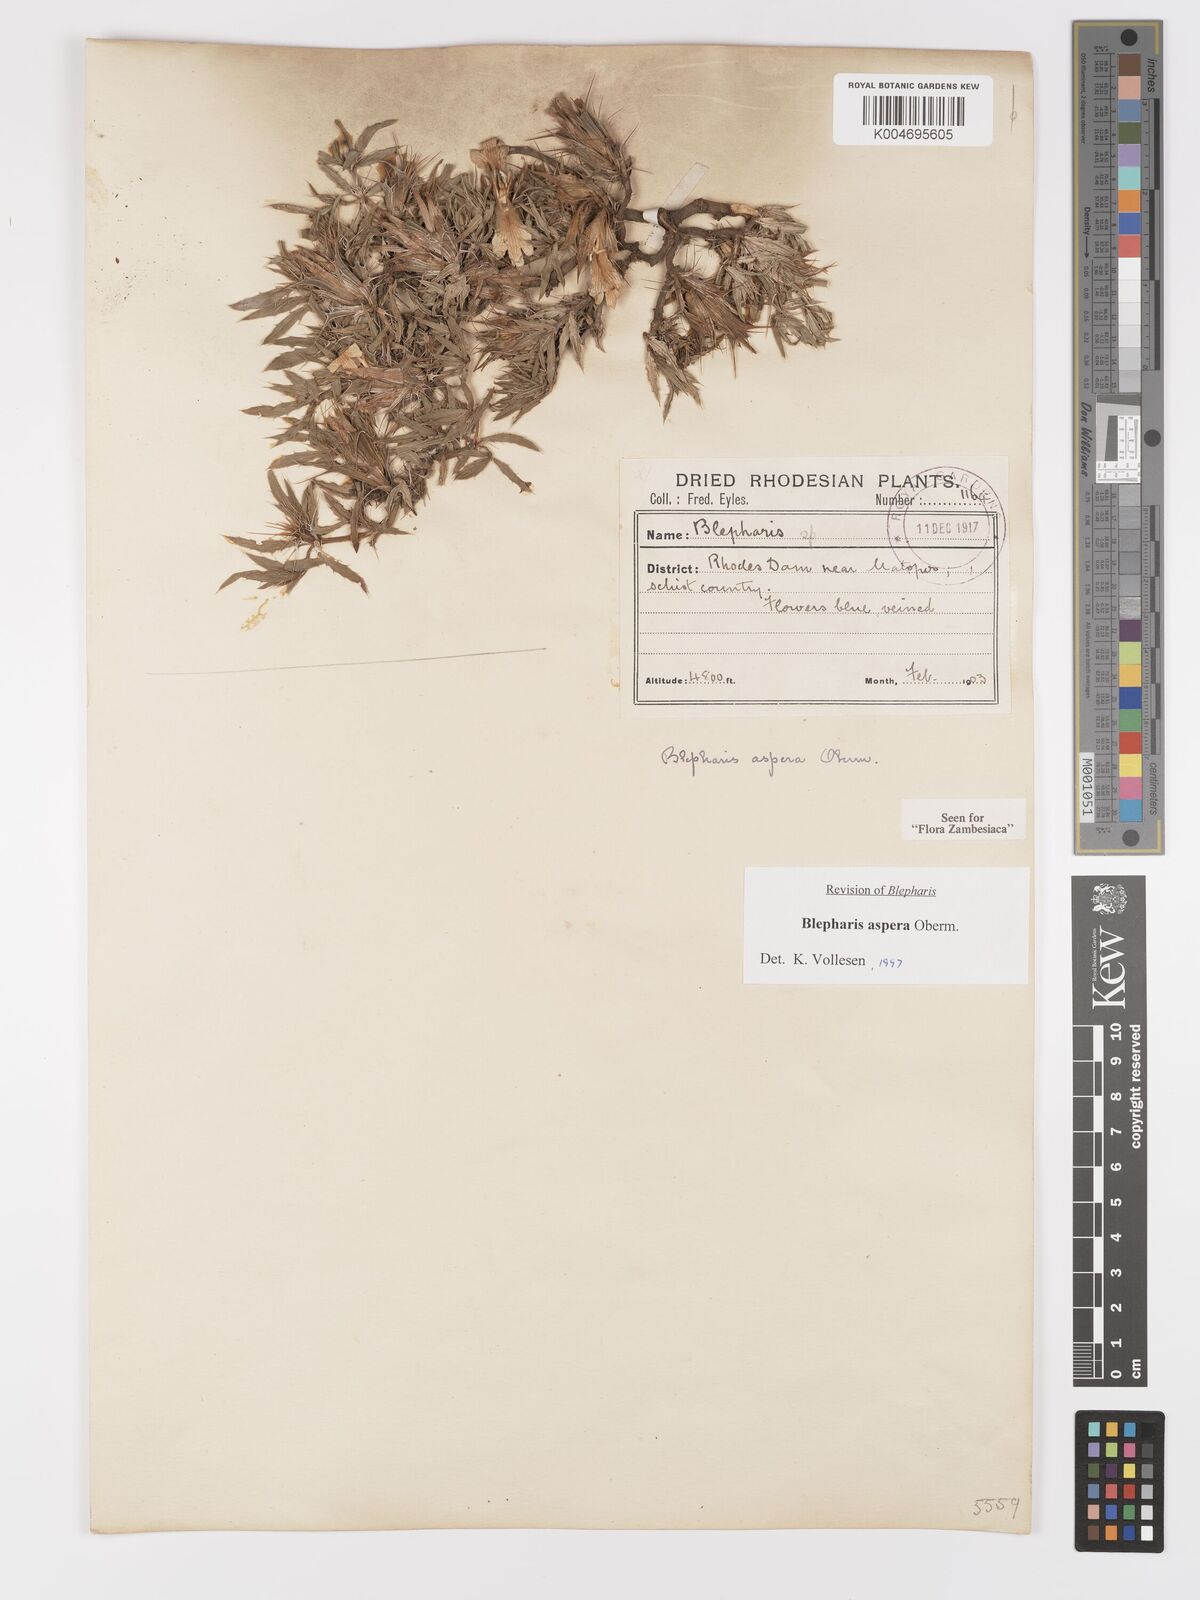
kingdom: Plantae
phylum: Tracheophyta
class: Magnoliopsida
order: Lamiales
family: Acanthaceae
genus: Blepharis
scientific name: Blepharis aspera
